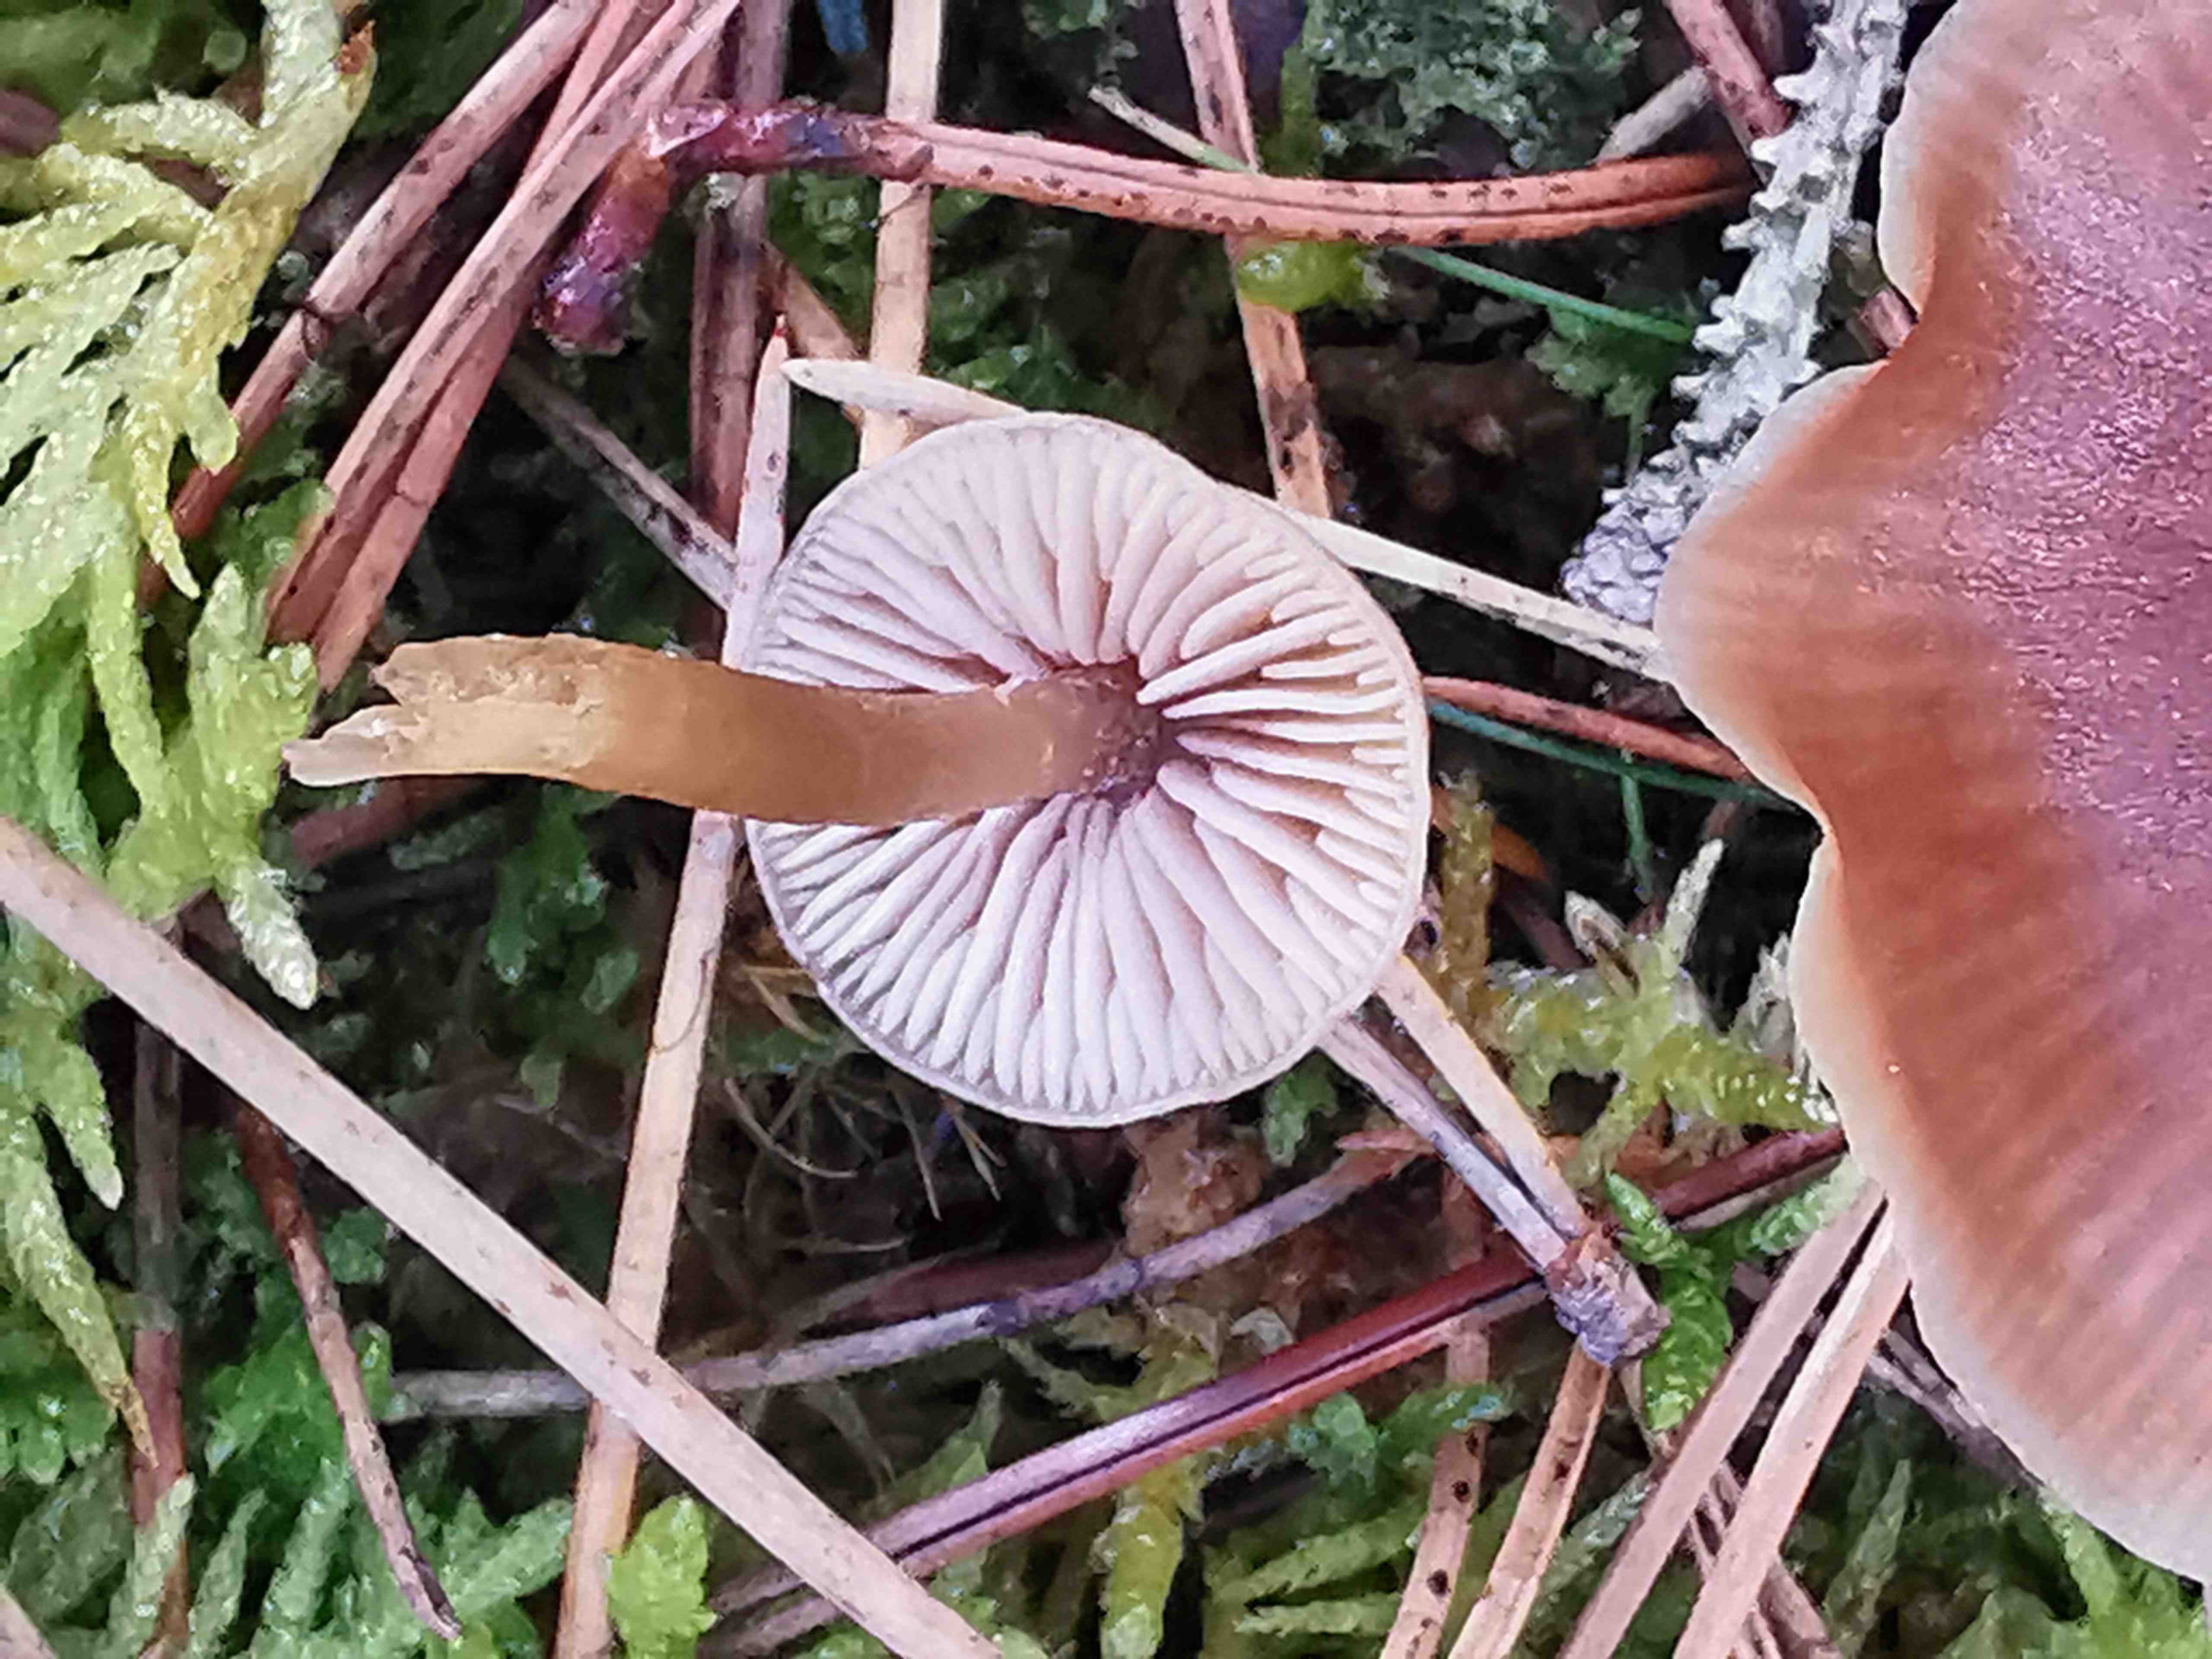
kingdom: Fungi
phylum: Basidiomycota
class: Agaricomycetes
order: Agaricales
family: Entolomataceae
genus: Entoloma
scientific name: Entoloma cetratum
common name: voks-rødblad
